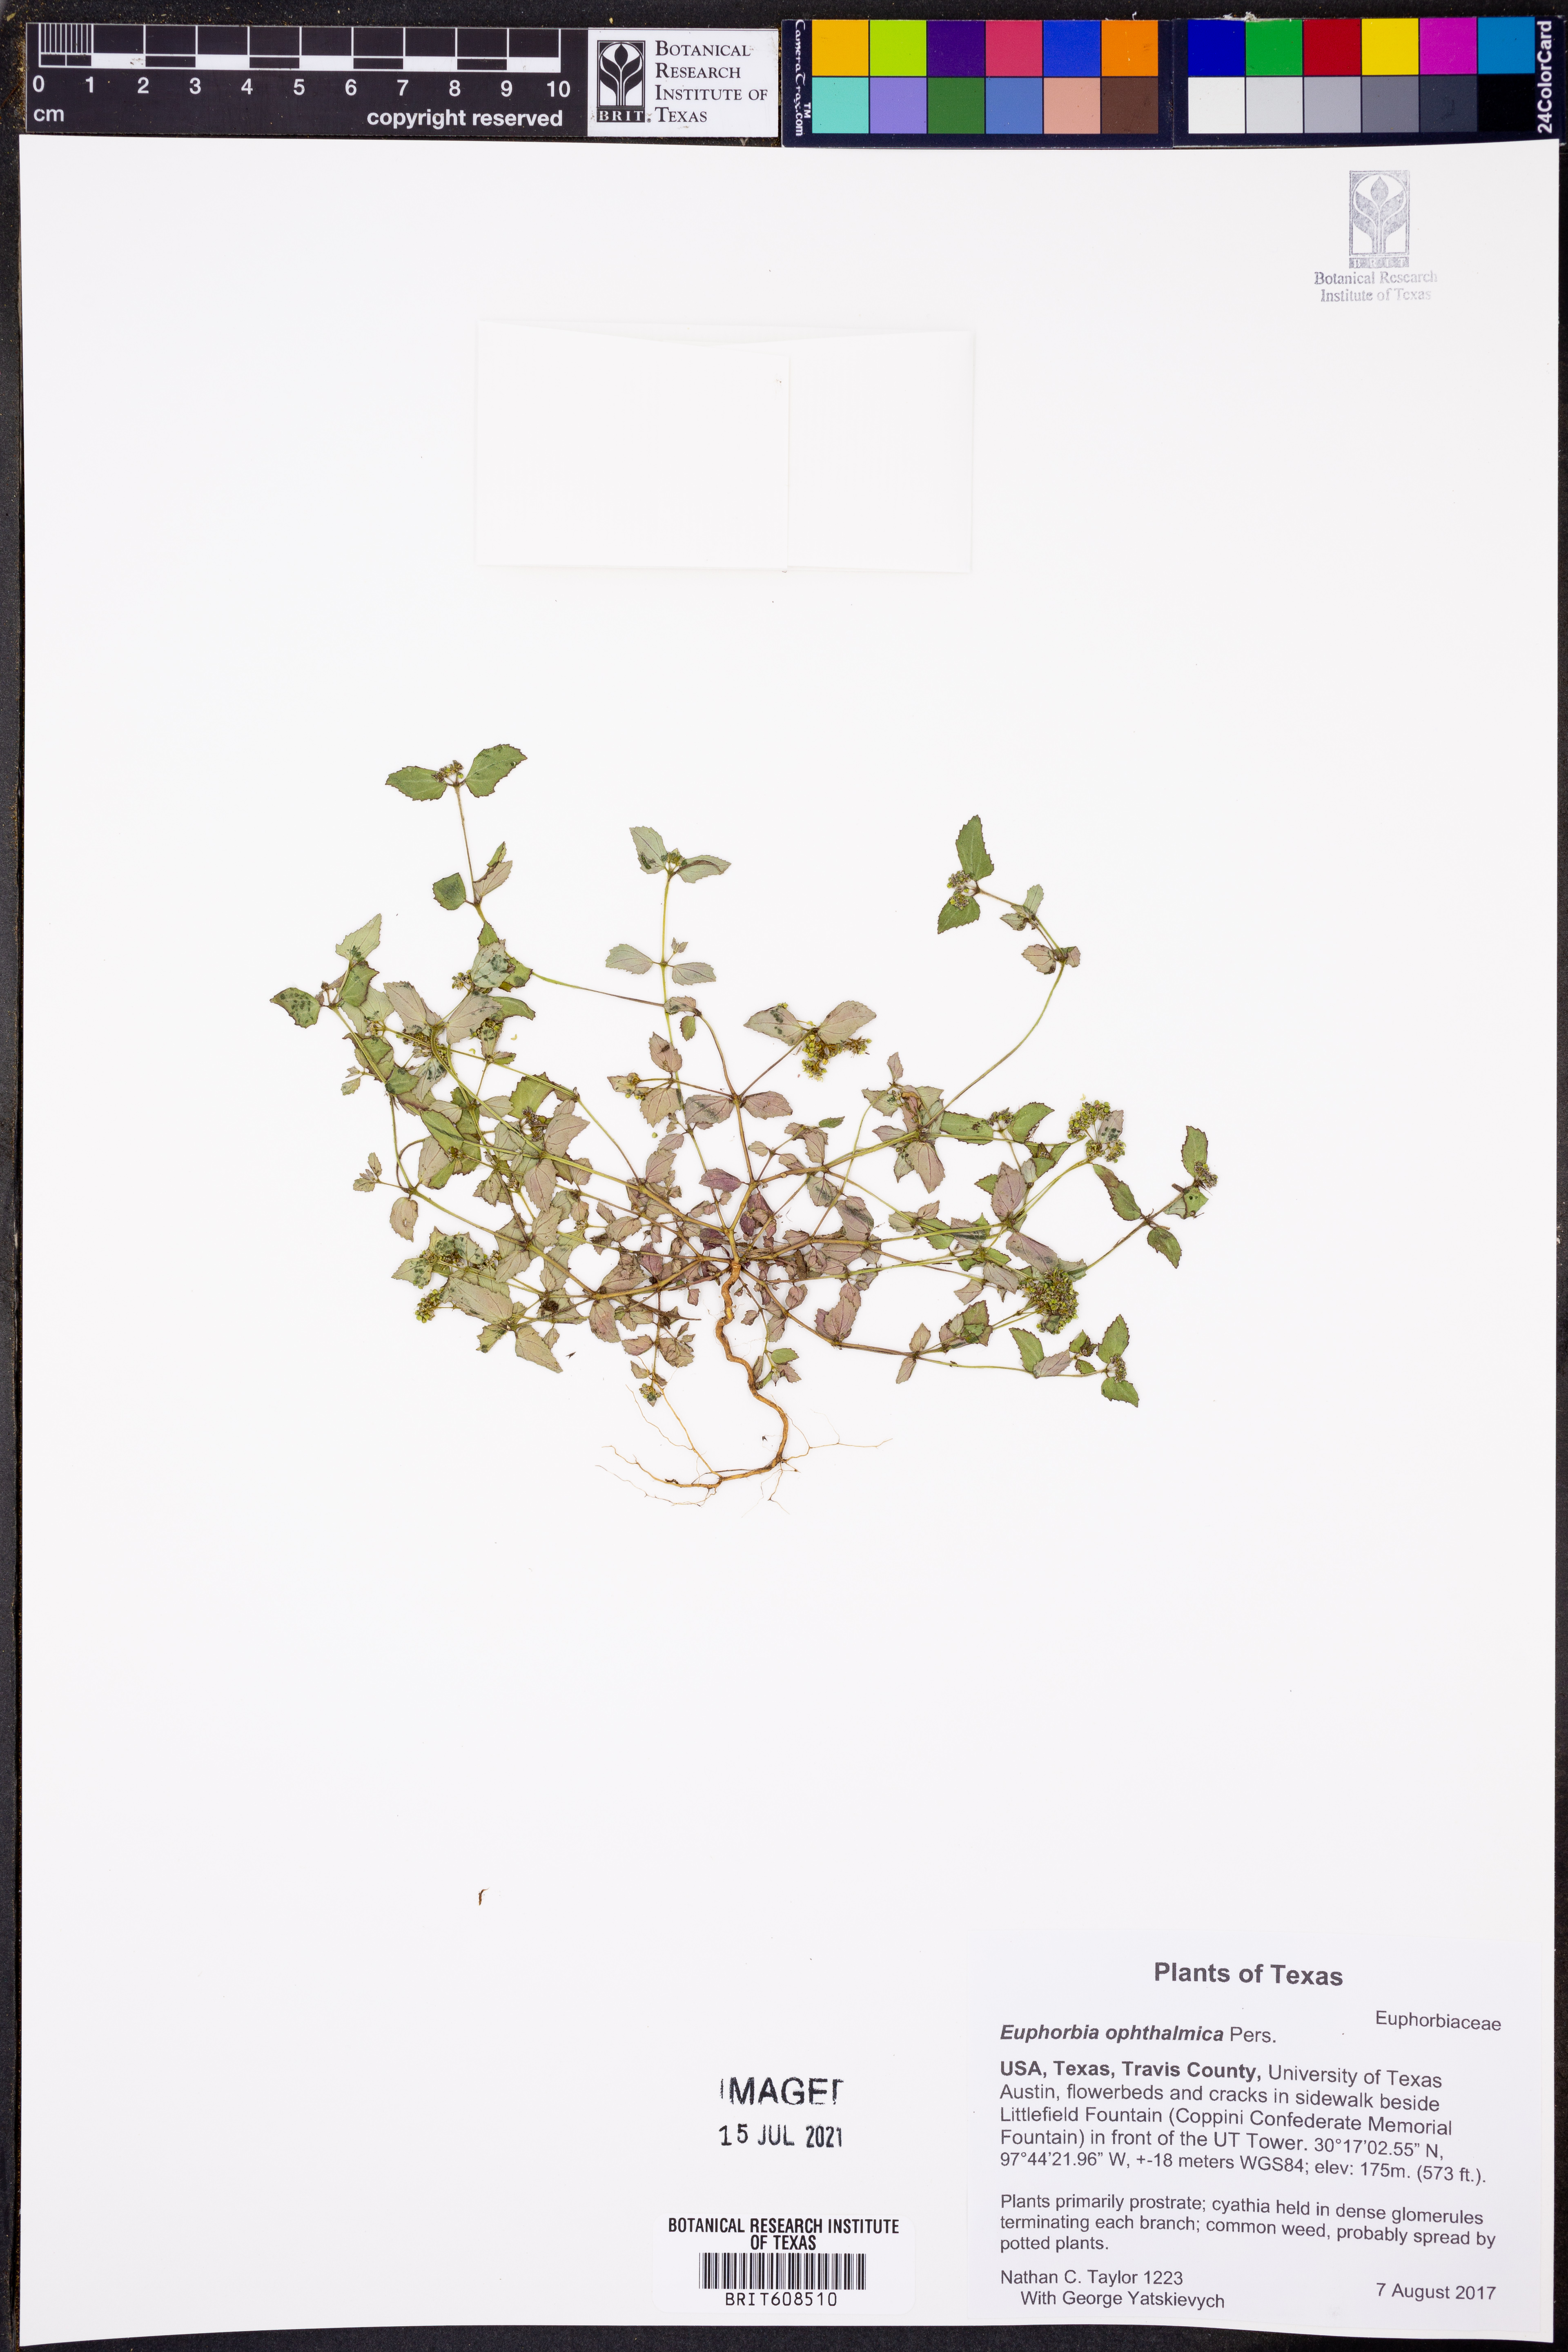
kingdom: Plantae
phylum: Tracheophyta
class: Magnoliopsida
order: Malpighiales
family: Euphorbiaceae
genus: Euphorbia
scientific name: Euphorbia ophthalmica
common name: Florida hammock sandmat
